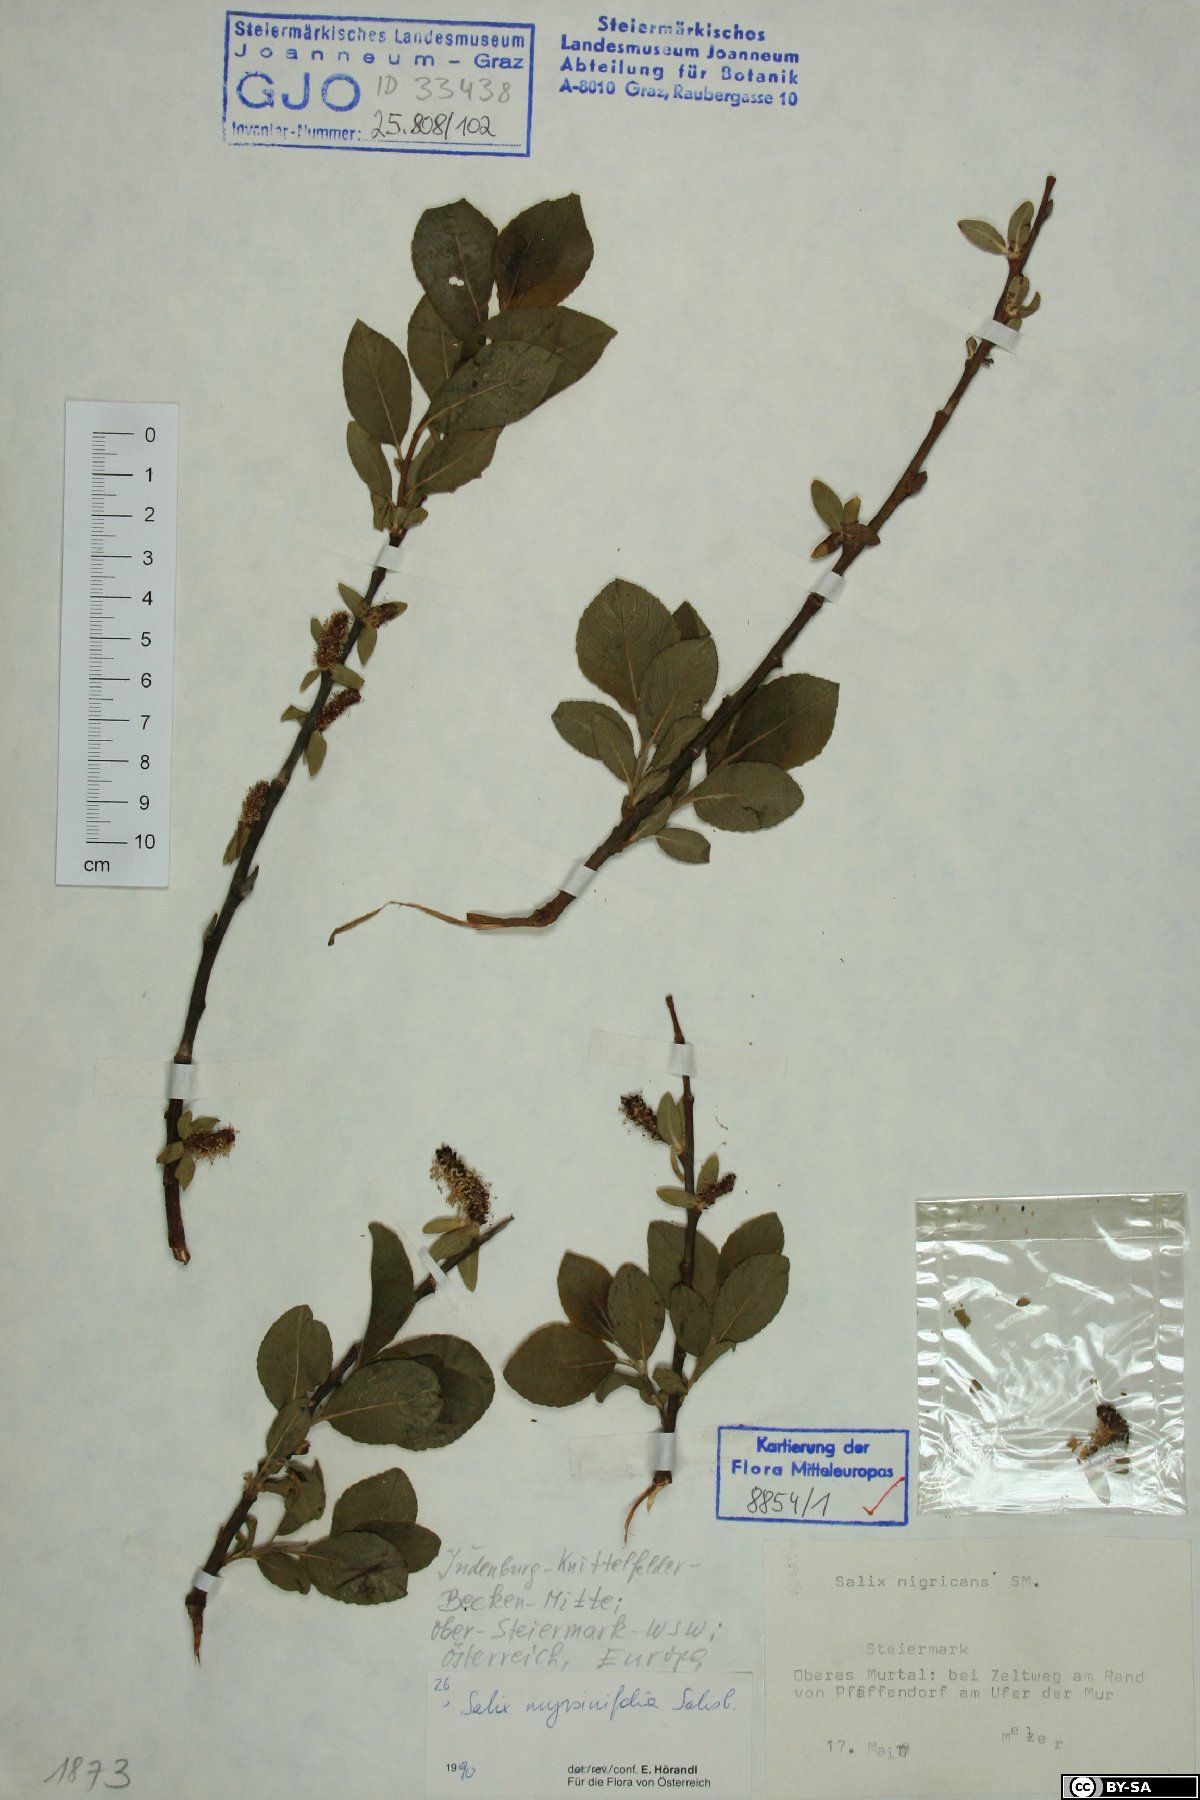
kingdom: Plantae
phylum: Tracheophyta
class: Magnoliopsida
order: Malpighiales
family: Salicaceae
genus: Salix
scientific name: Salix myrsinifolia
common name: Dark-leaved willow
